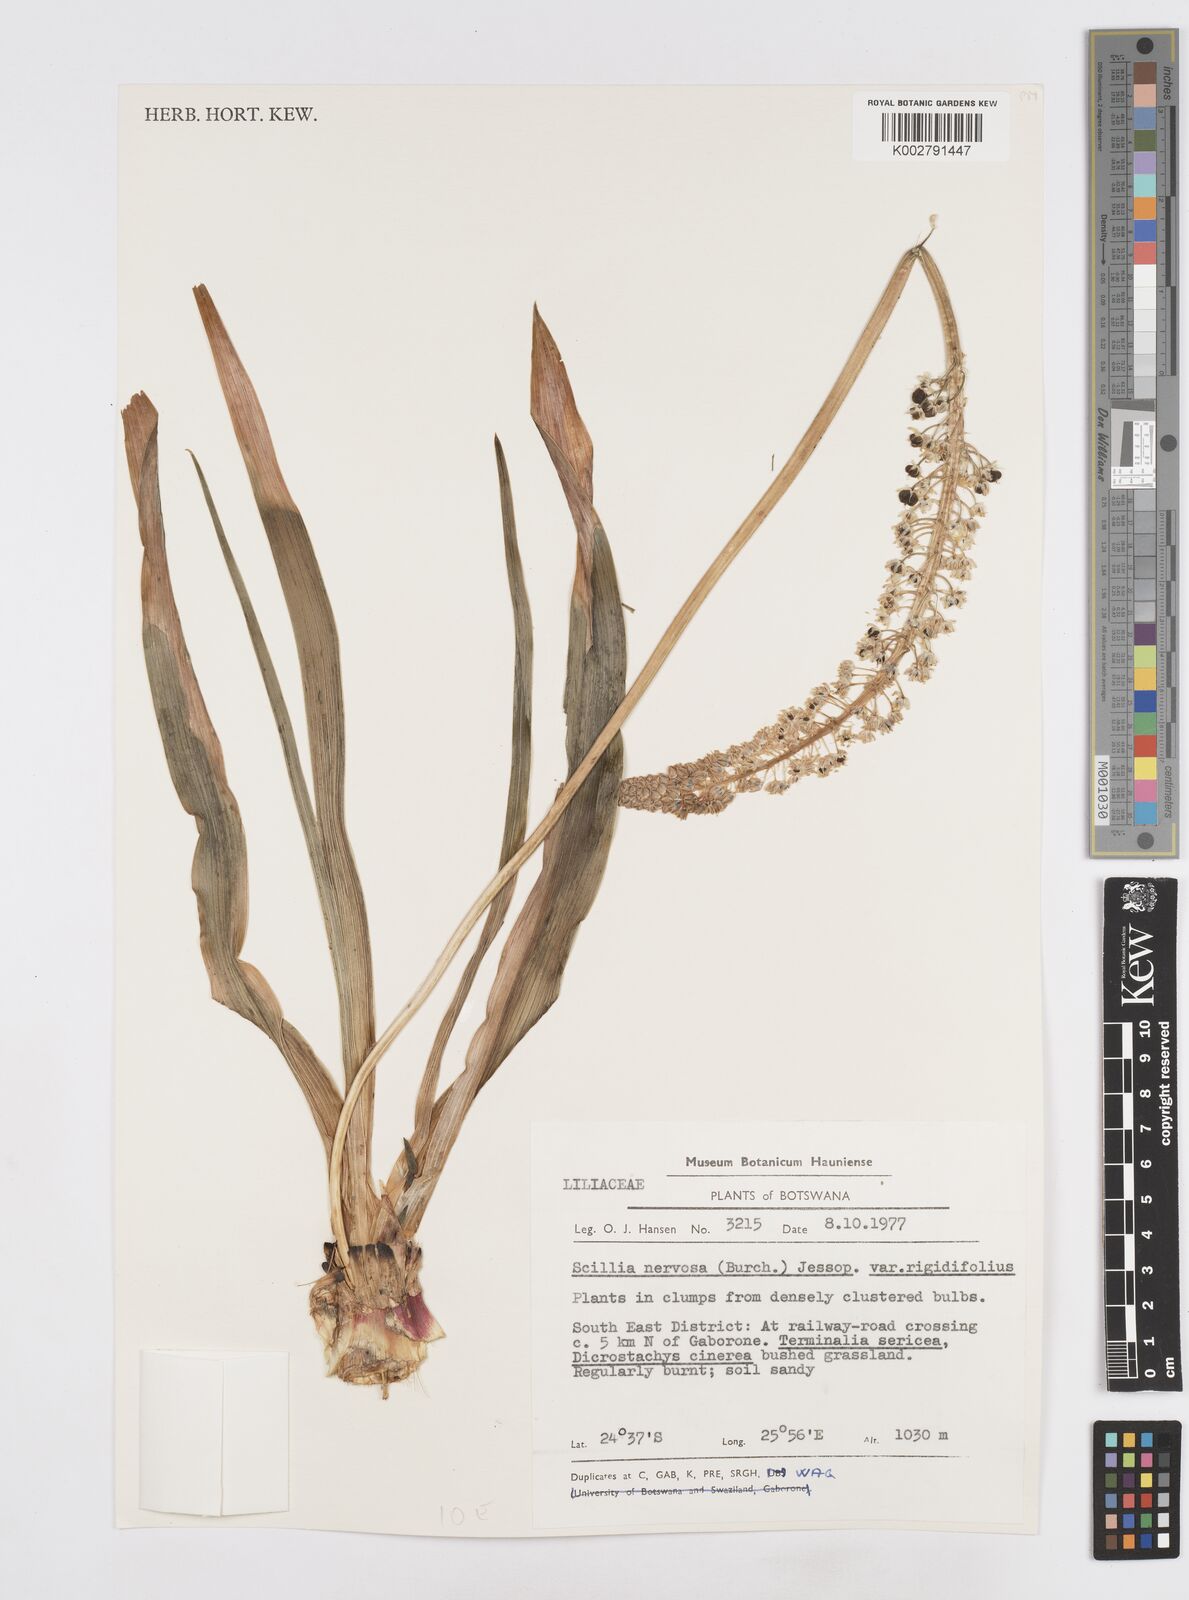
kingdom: Plantae
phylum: Tracheophyta
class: Liliopsida
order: Asparagales
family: Asparagaceae
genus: Schizocarphus
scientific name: Schizocarphus nervosus
